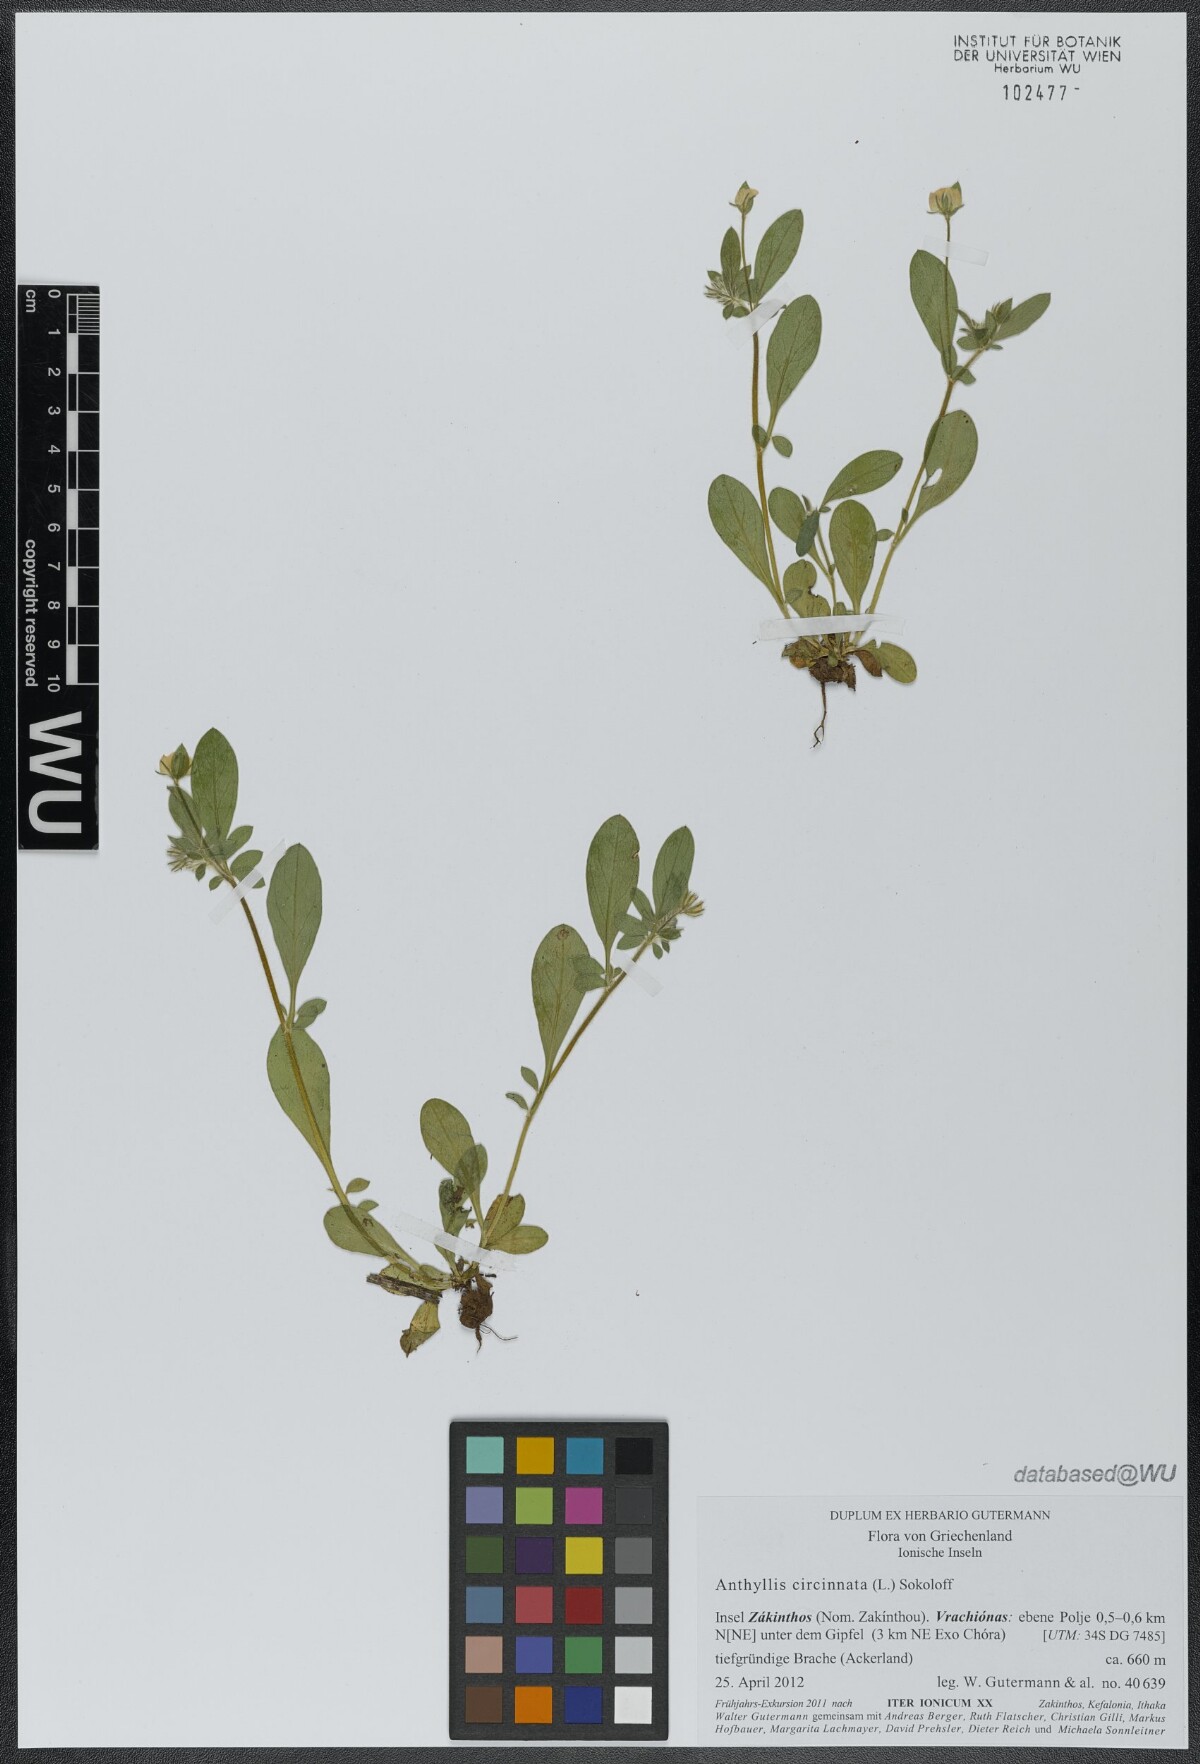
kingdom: Plantae
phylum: Tracheophyta
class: Magnoliopsida
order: Fabales
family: Fabaceae
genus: Anthyllis
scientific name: Anthyllis circinnata
